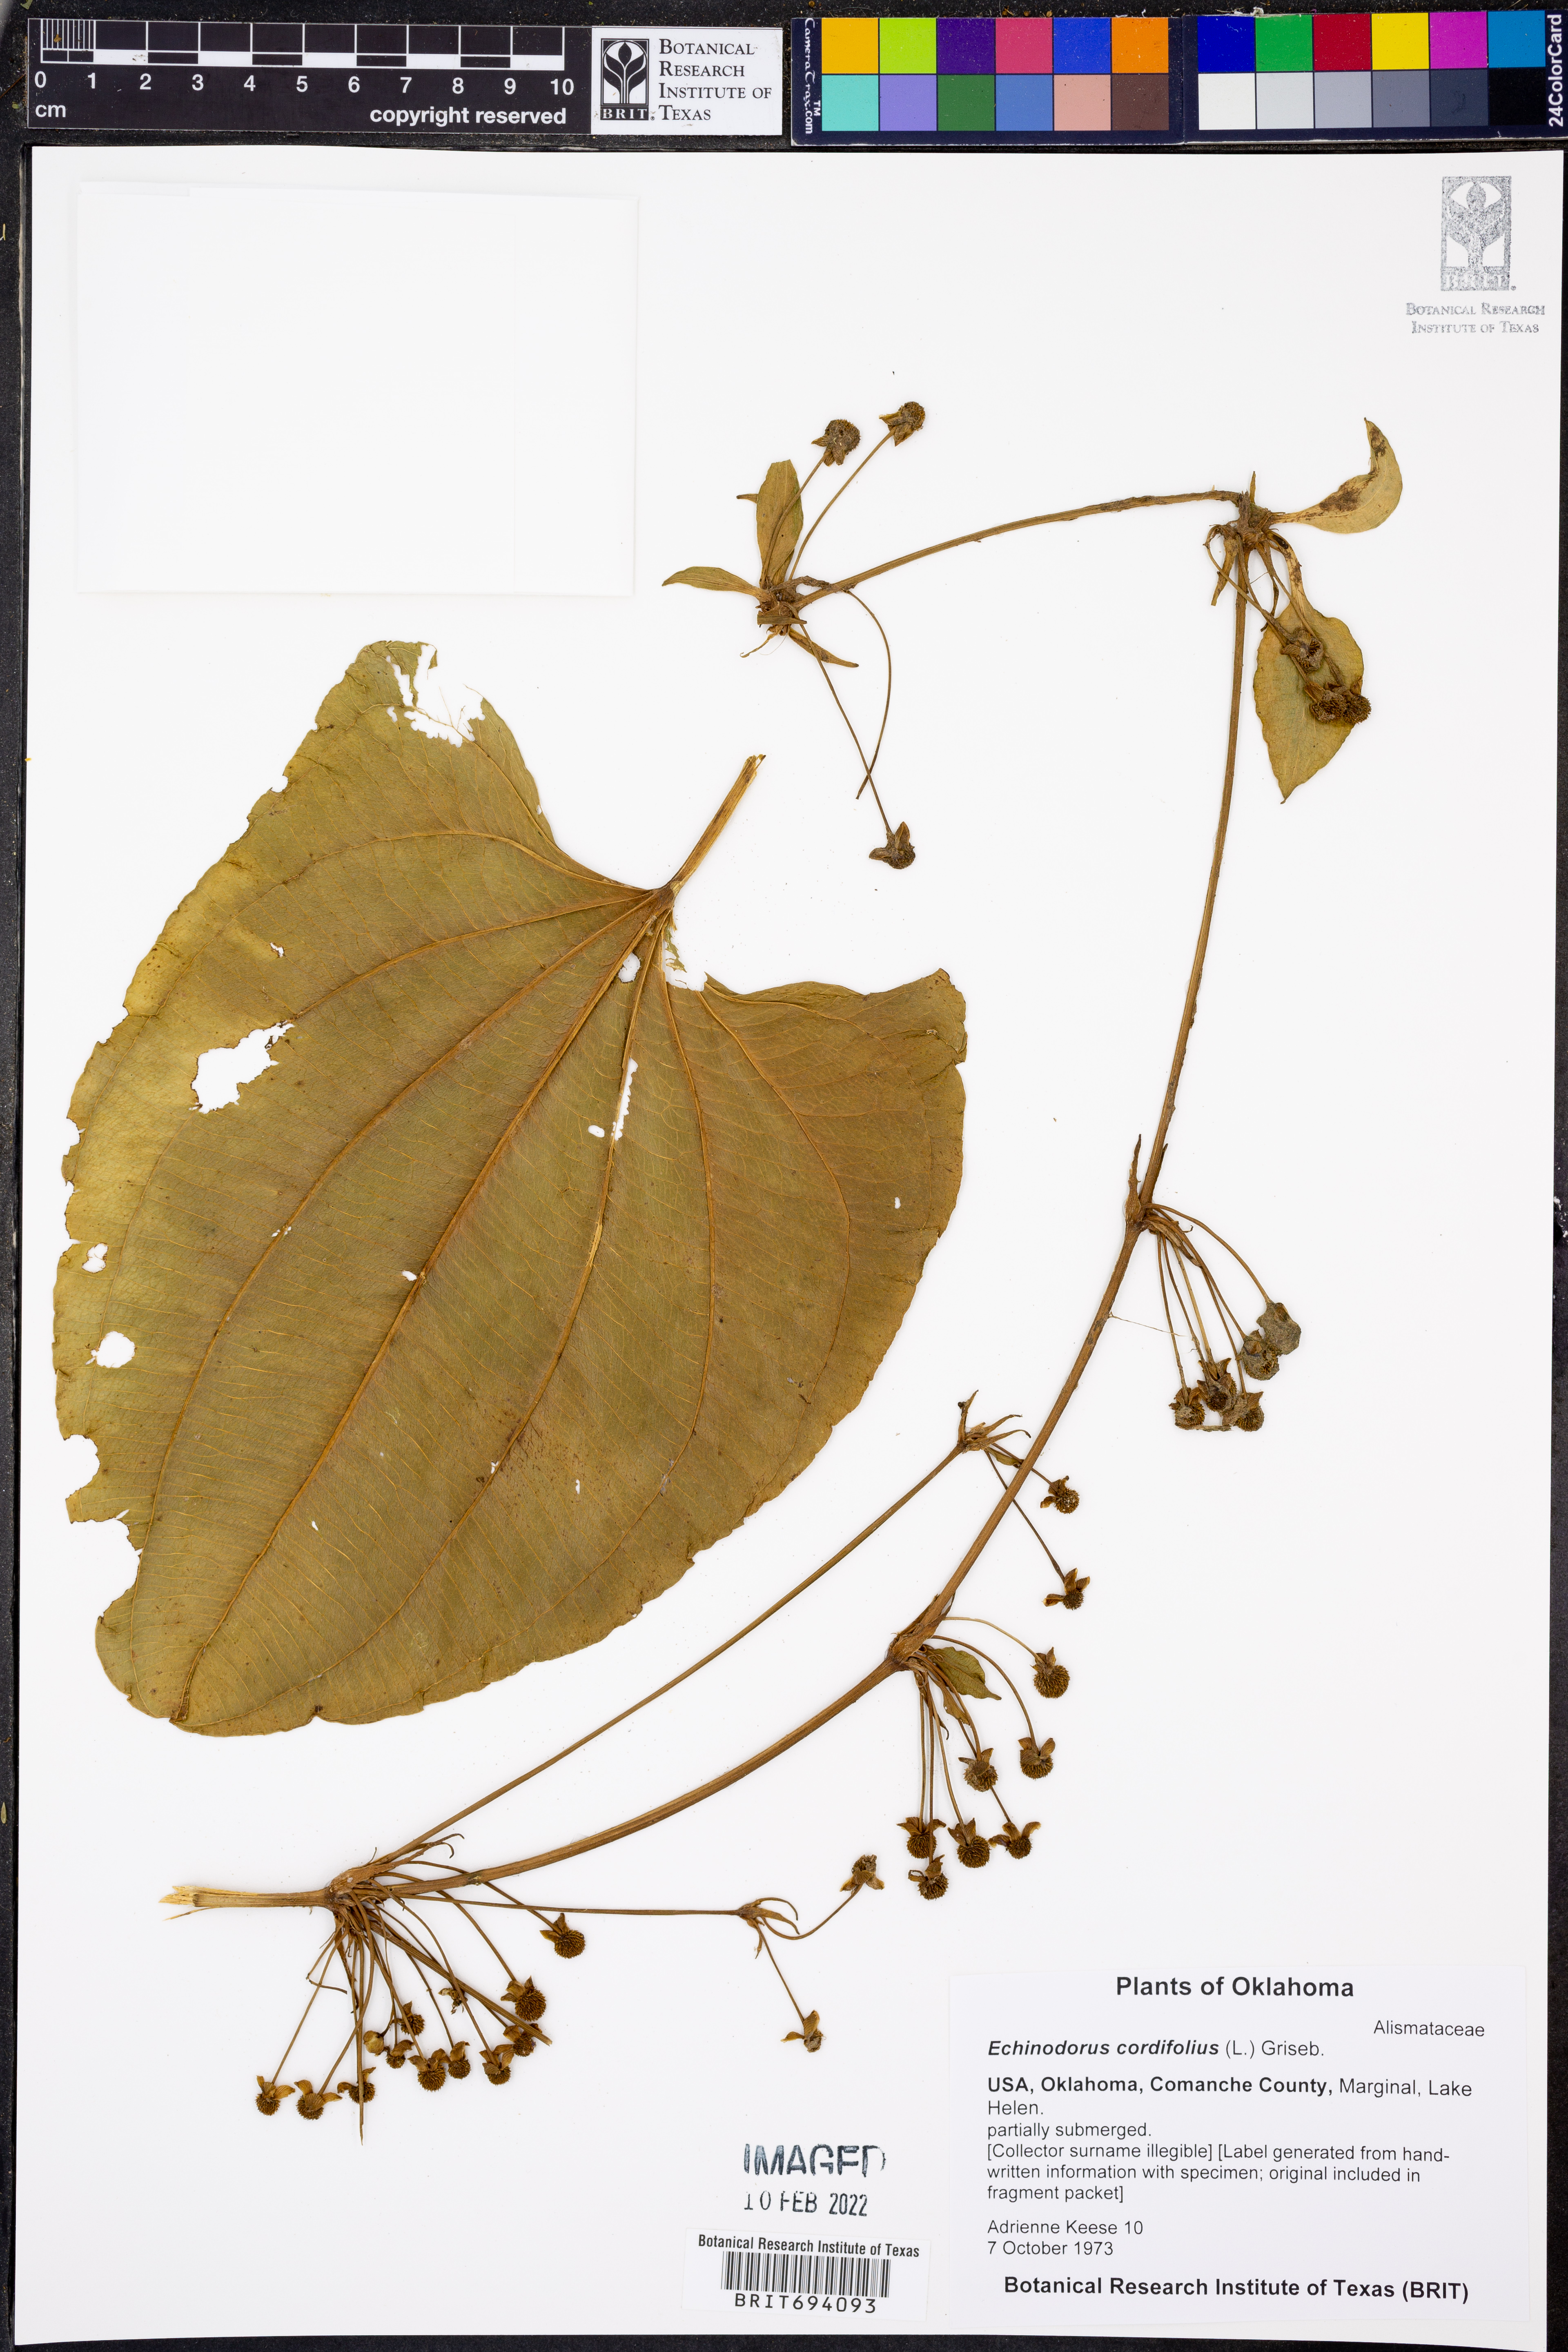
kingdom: Plantae
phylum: Tracheophyta
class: Liliopsida
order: Alismatales
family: Alismataceae
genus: Aquarius
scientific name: Aquarius cordifolius
